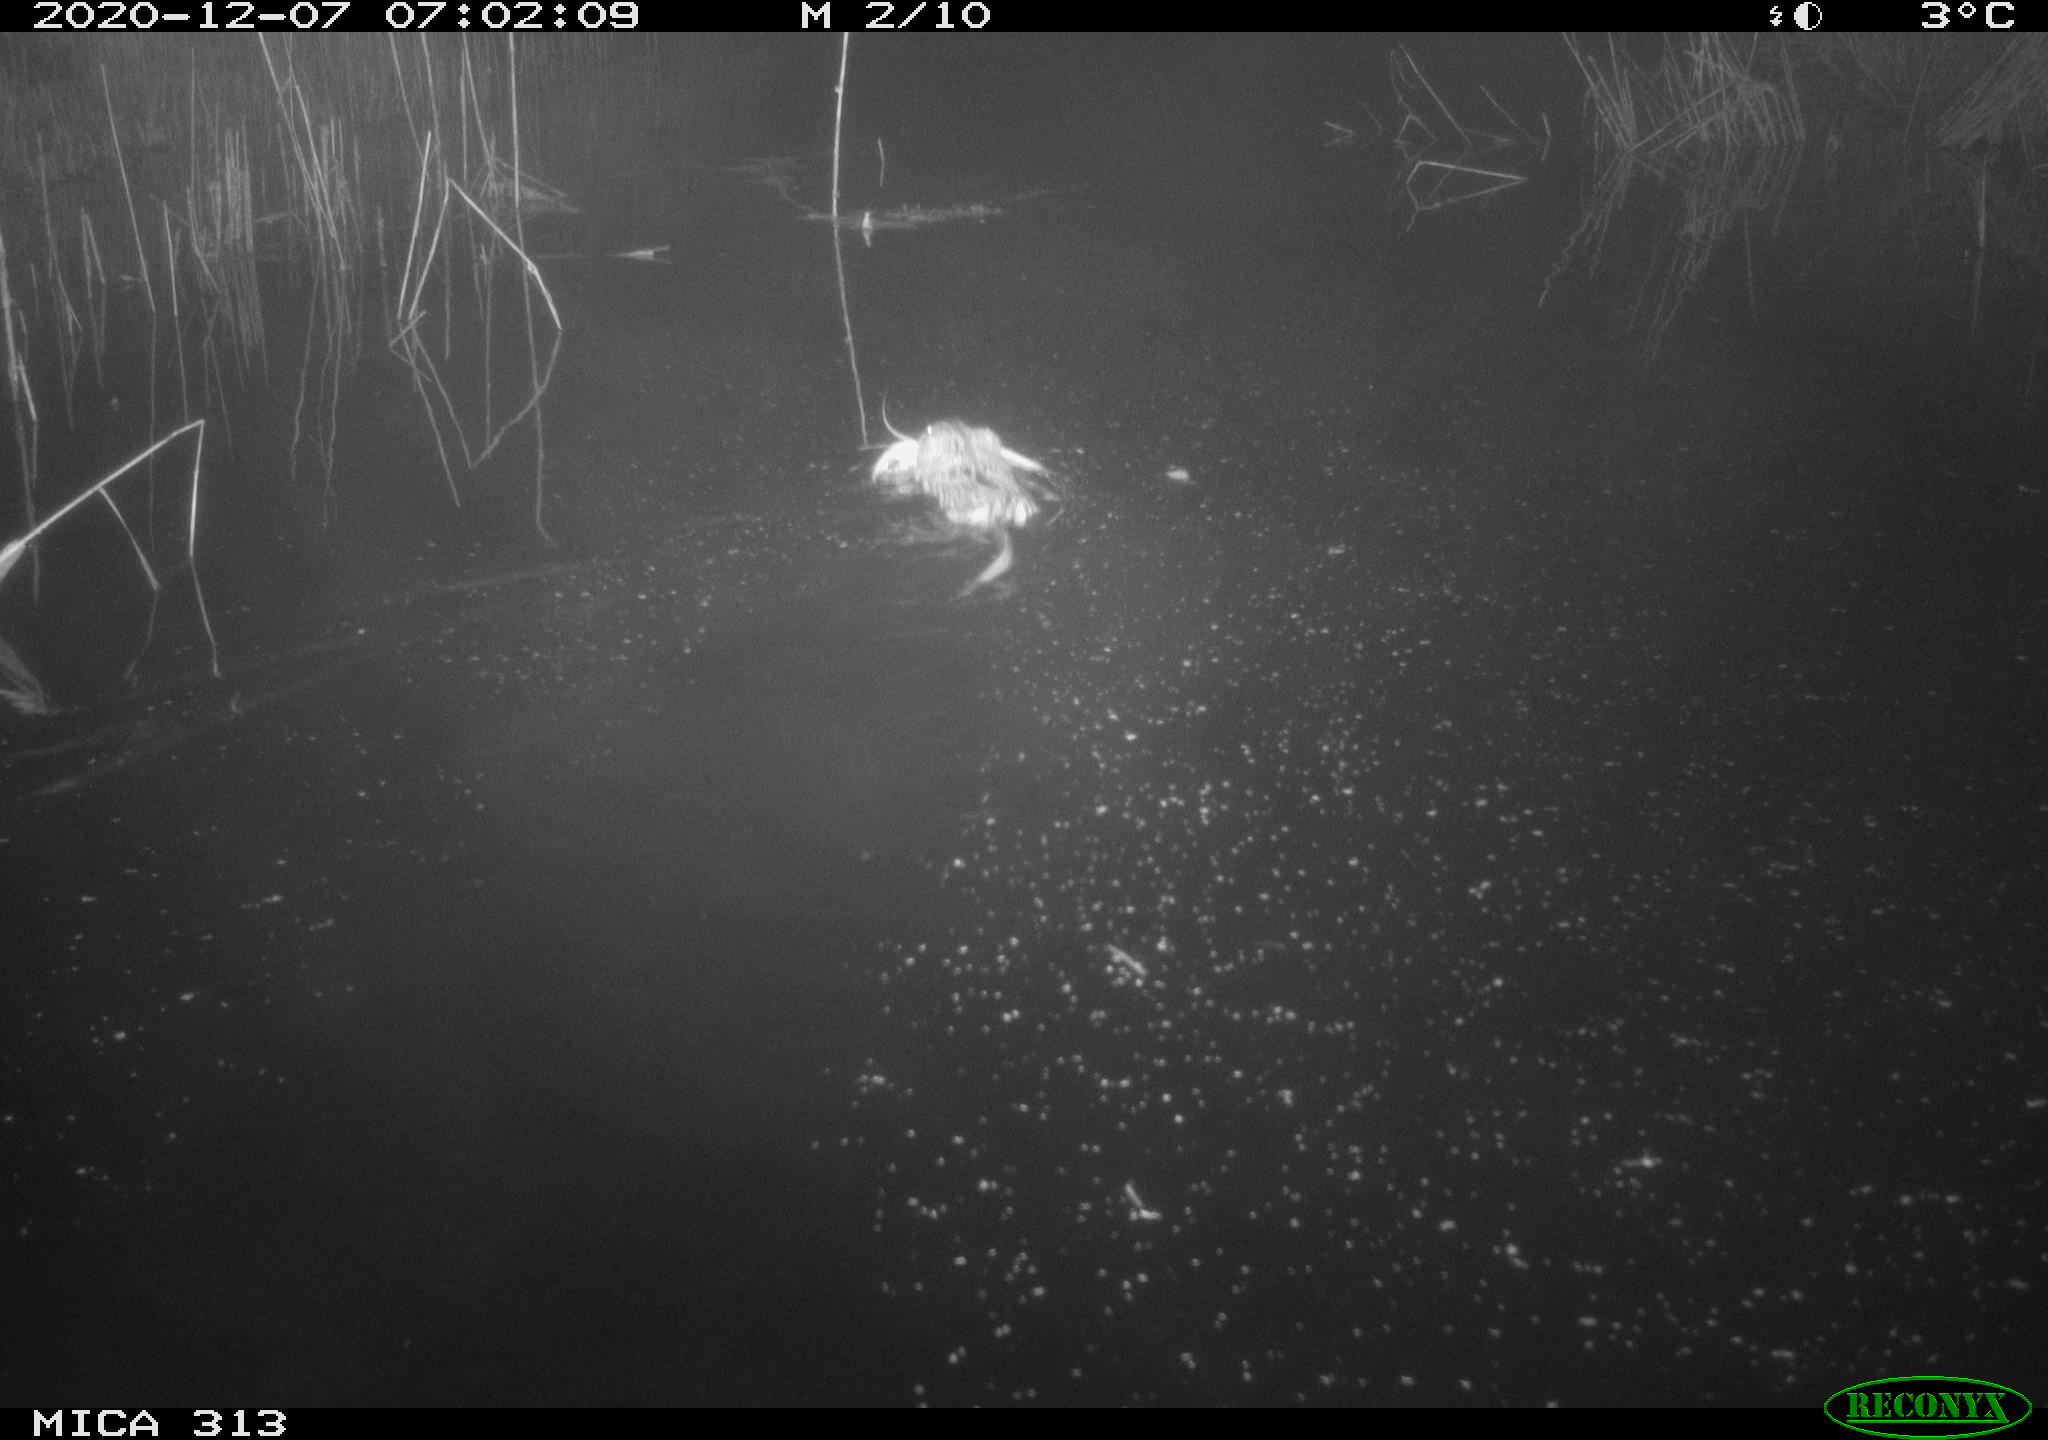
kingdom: Animalia
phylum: Chordata
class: Mammalia
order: Rodentia
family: Cricetidae
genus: Ondatra
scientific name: Ondatra zibethicus
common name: Muskrat
